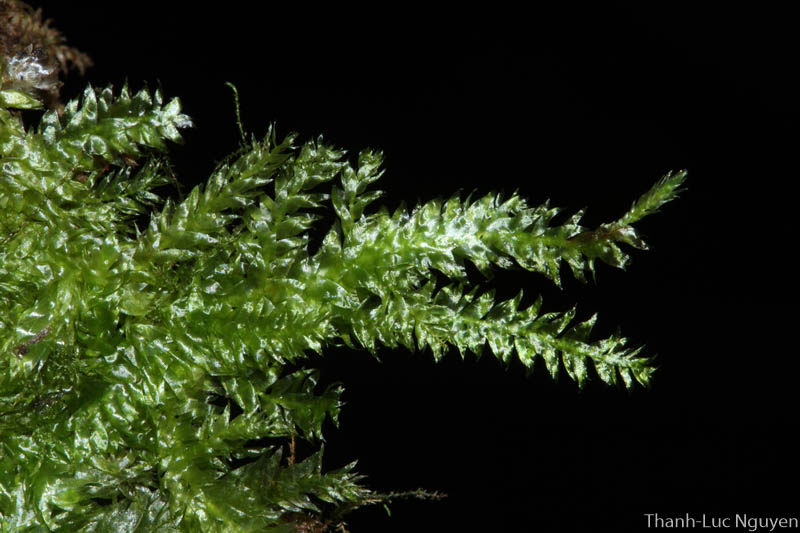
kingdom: Plantae
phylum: Bryophyta
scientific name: Bryophyta
